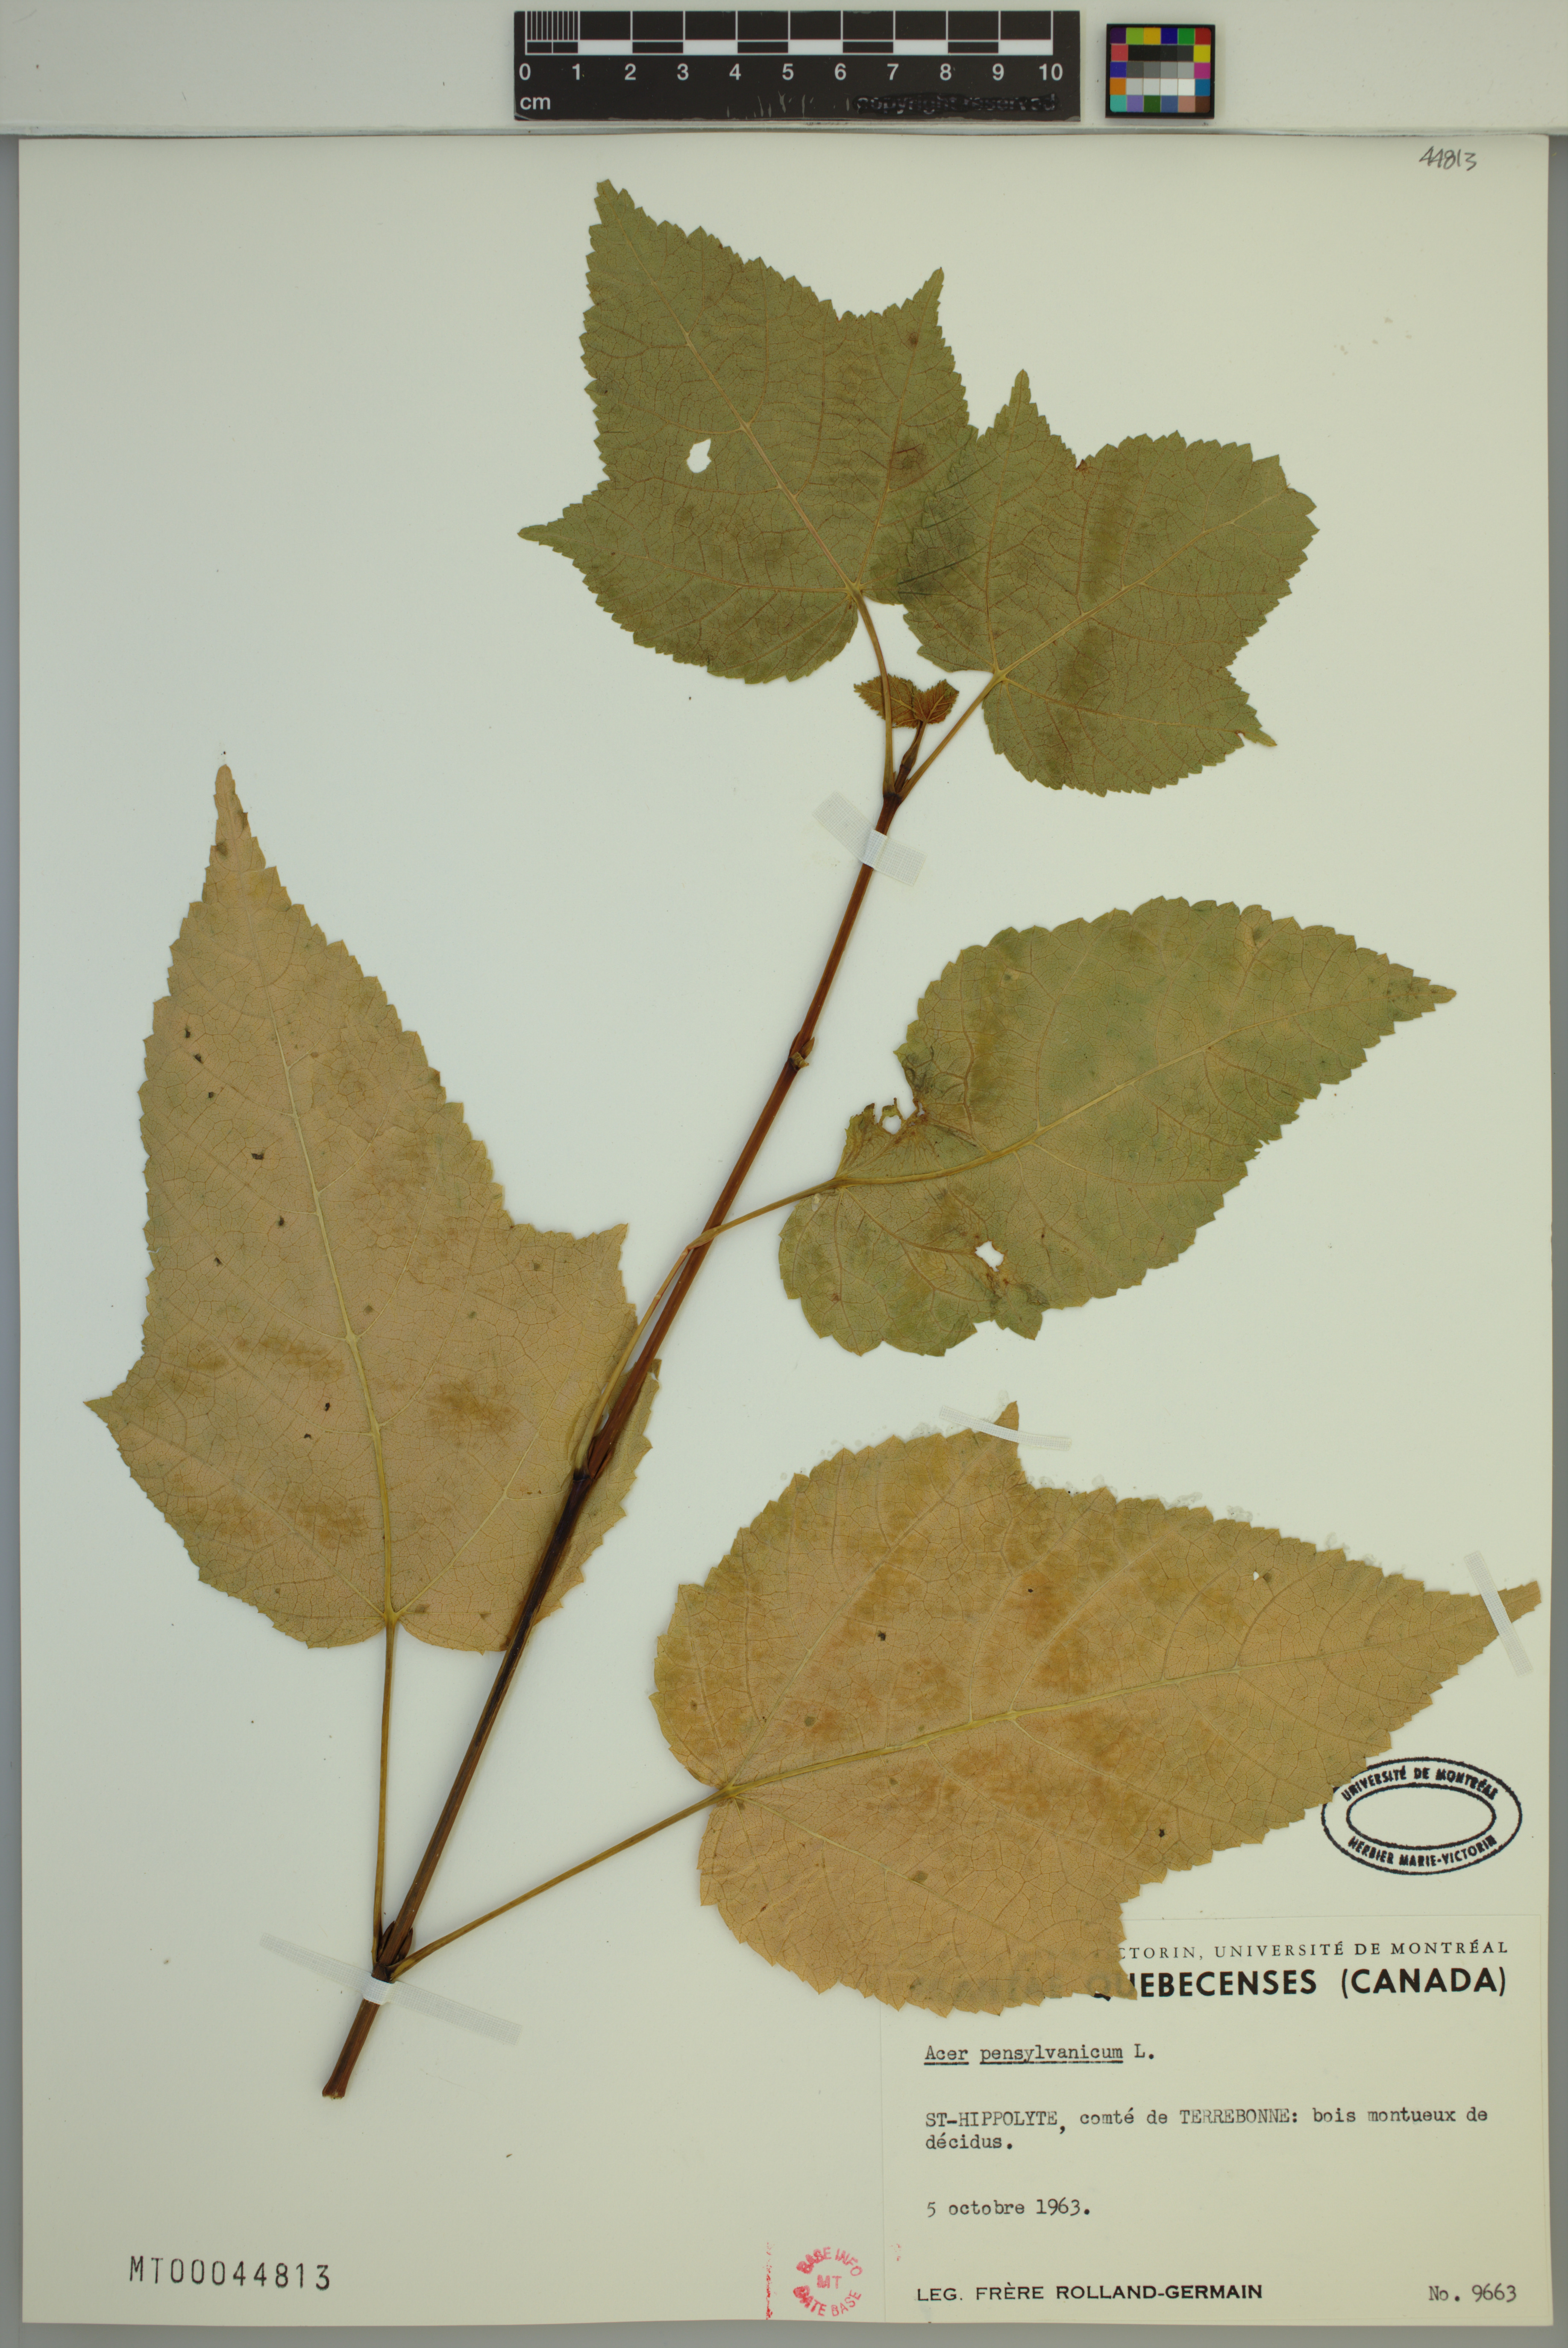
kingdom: Plantae
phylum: Tracheophyta
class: Magnoliopsida
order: Sapindales
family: Sapindaceae
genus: Acer
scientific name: Acer pensylvanicum
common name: Moosewood
